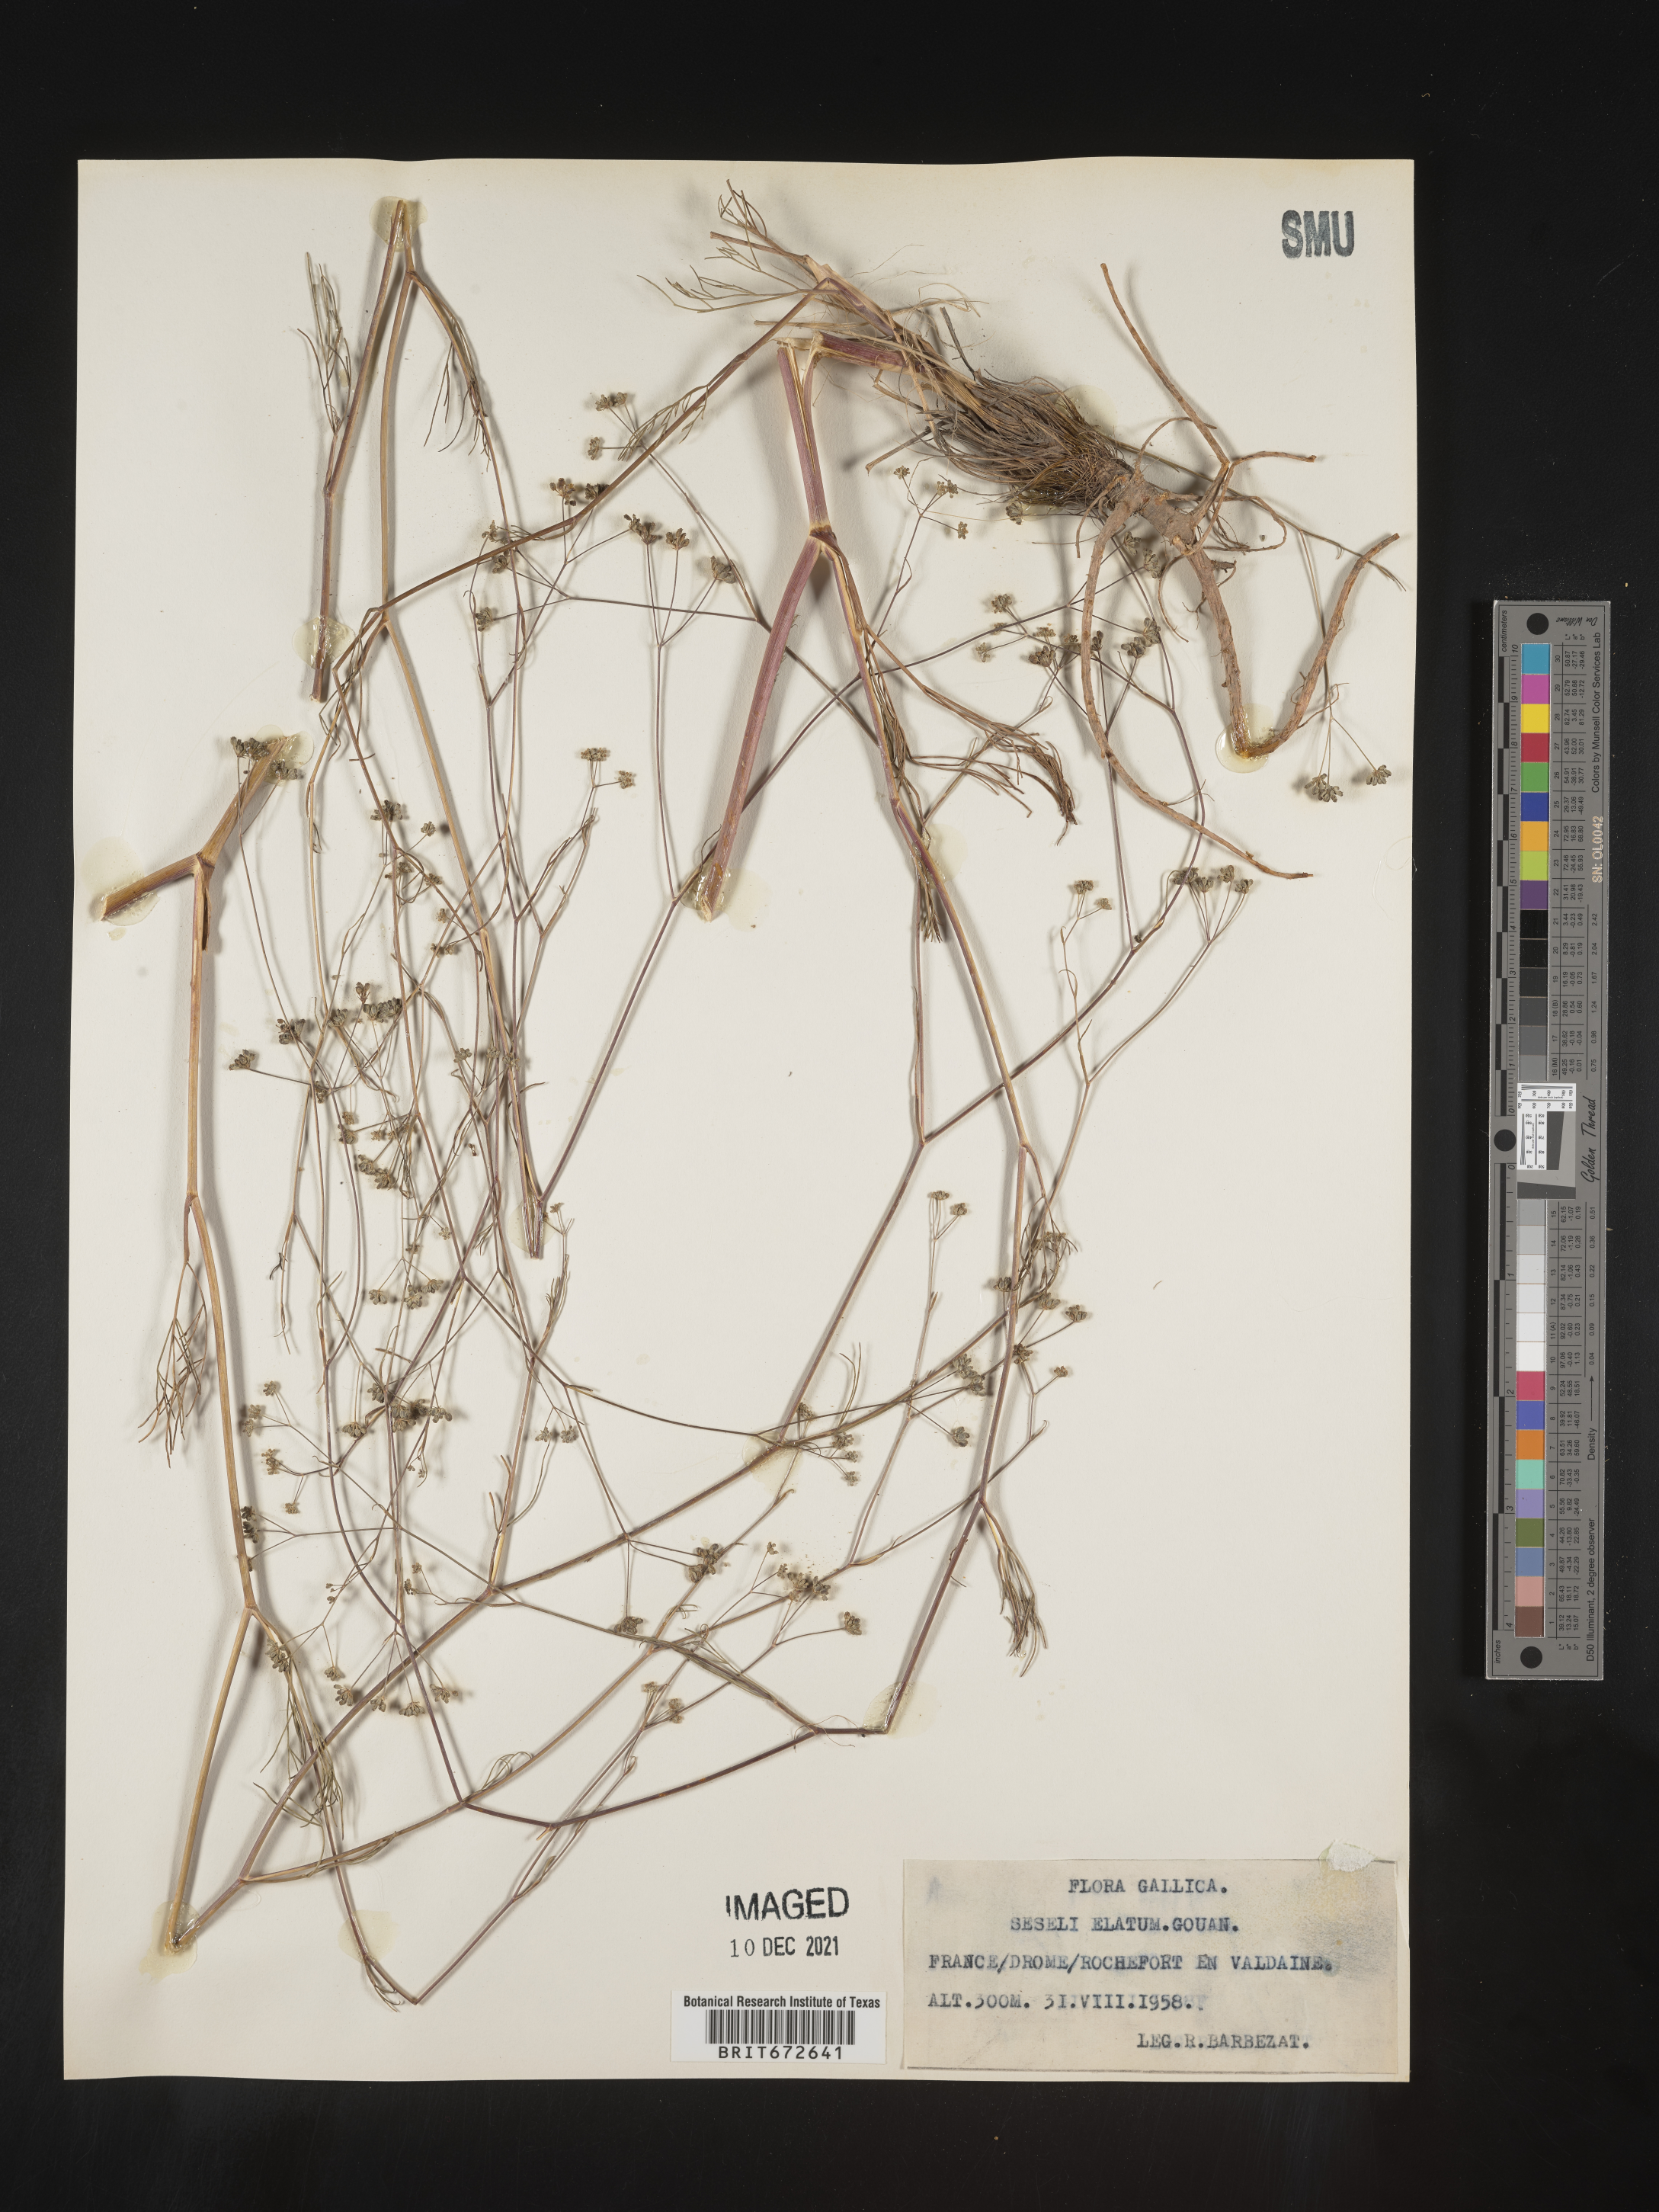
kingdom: Plantae
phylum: Tracheophyta
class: Magnoliopsida
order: Apiales
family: Apiaceae
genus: Seseli
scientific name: Seseli
